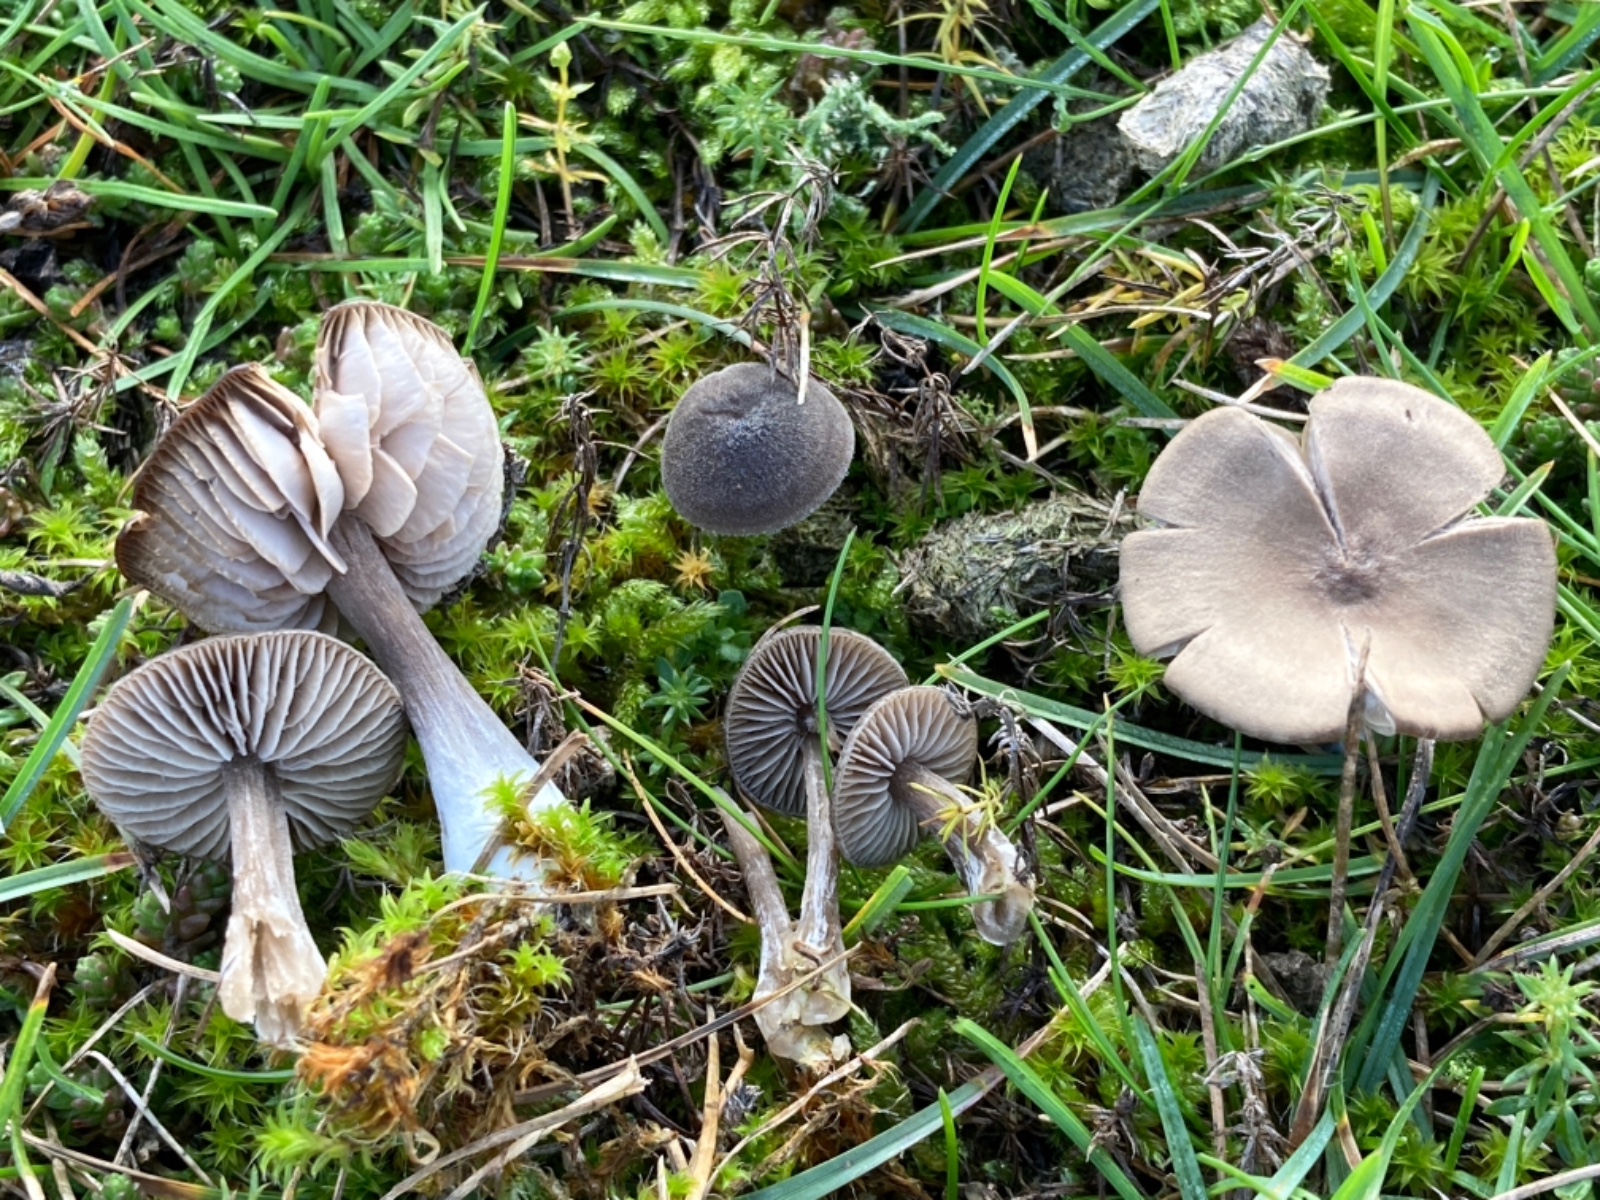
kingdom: Fungi
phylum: Basidiomycota
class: Agaricomycetes
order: Agaricales
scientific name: Agaricales
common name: champignonordenen
